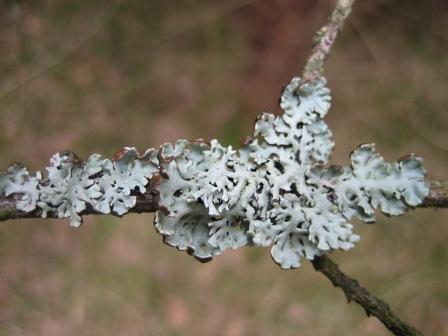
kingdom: Fungi
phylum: Ascomycota
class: Lecanoromycetes
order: Lecanorales
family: Parmeliaceae
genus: Hypogymnia
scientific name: Hypogymnia physodes
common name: almindelig kvistlav
